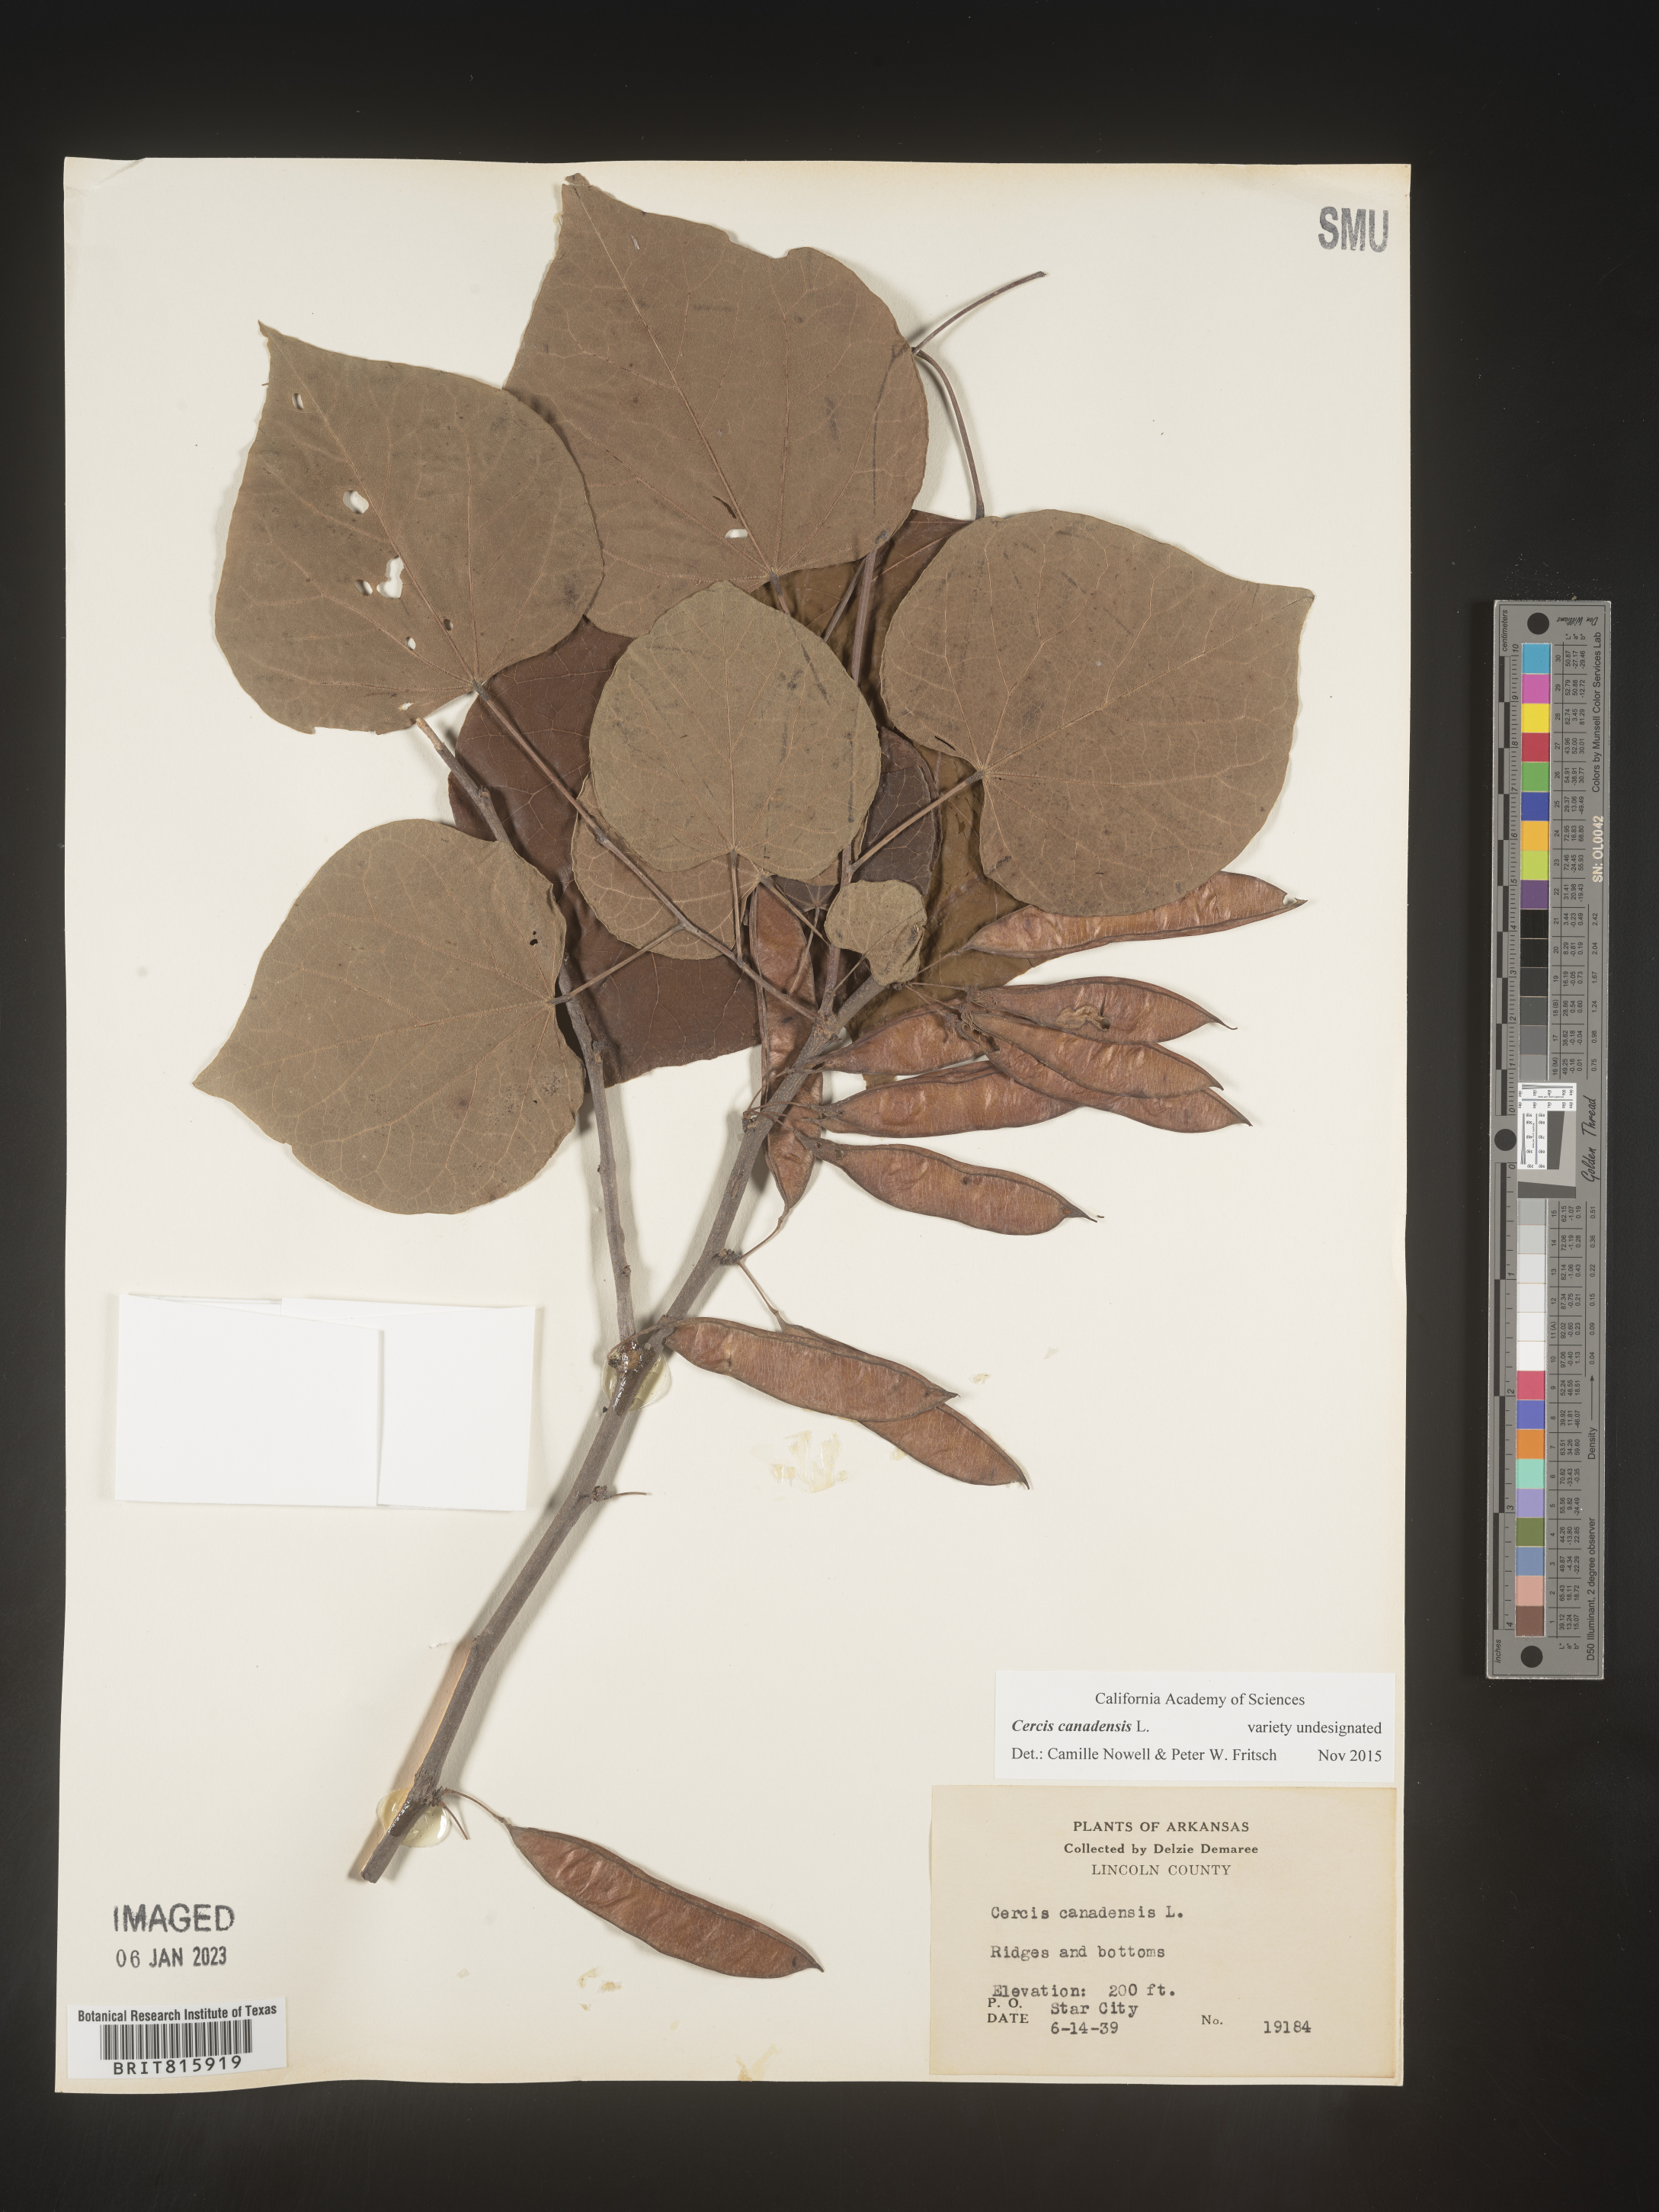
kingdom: Plantae
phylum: Tracheophyta
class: Magnoliopsida
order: Fabales
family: Fabaceae
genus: Cercis
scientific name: Cercis canadensis
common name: Eastern redbud
